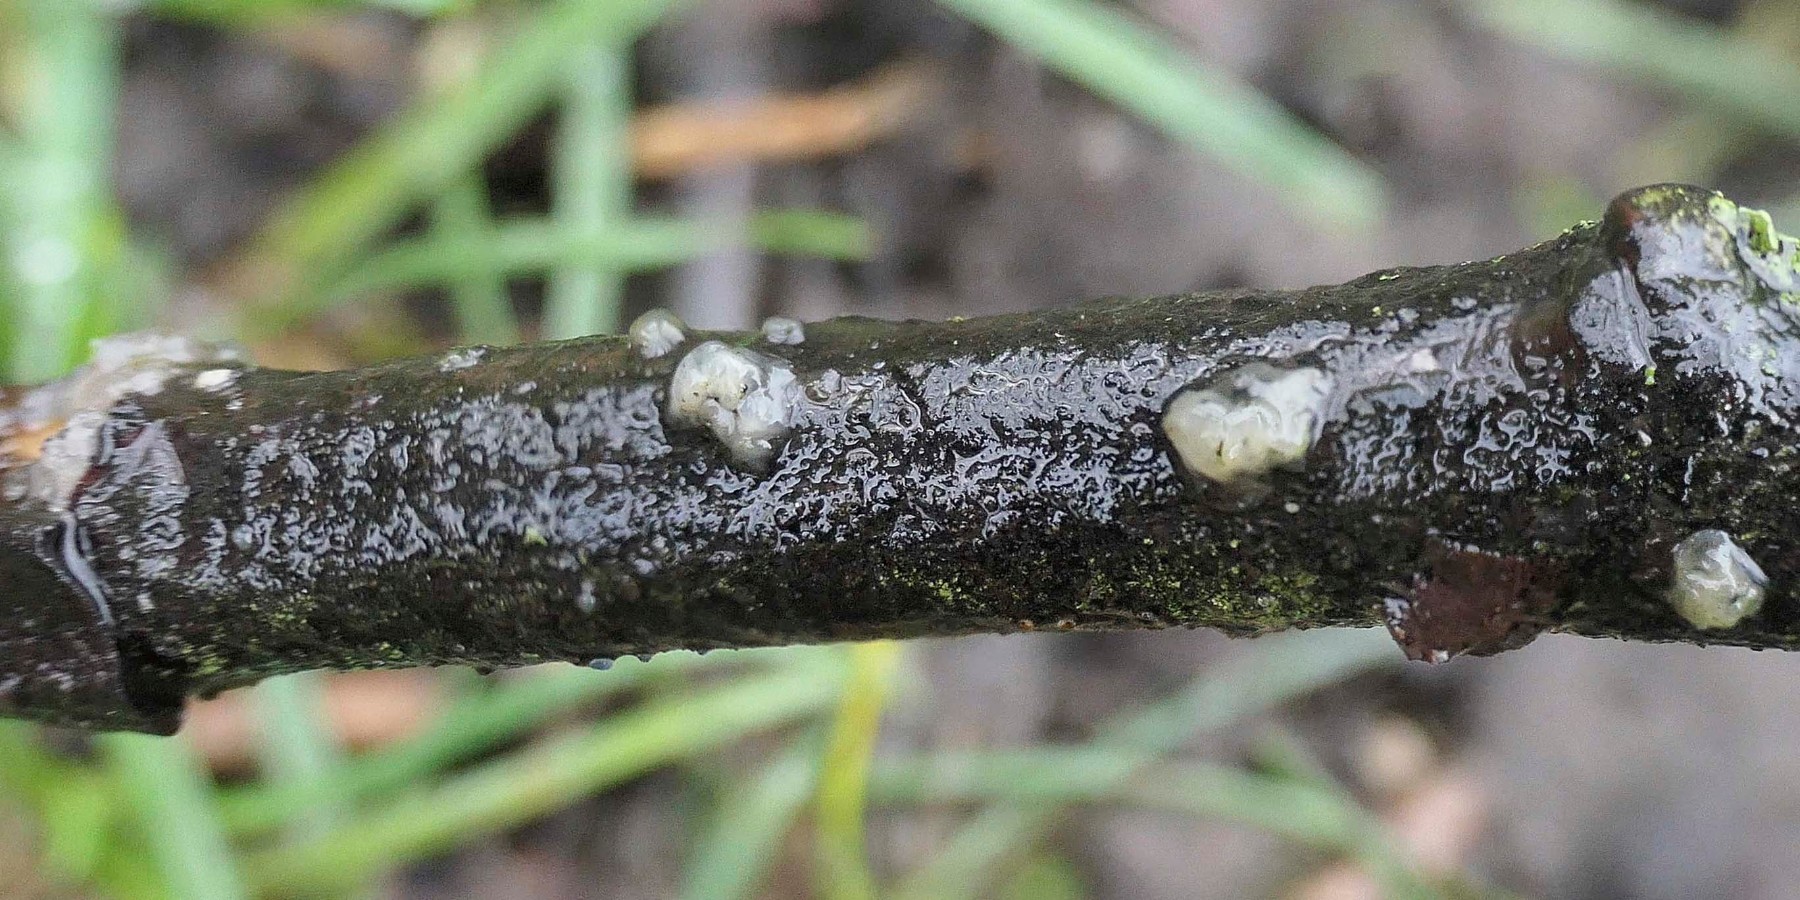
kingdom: Fungi
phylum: Basidiomycota
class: Pucciniomycetes
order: Platygloeales
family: Platygloeaceae
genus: Platygloea
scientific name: Platygloea disciformis
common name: linde-slimklat
